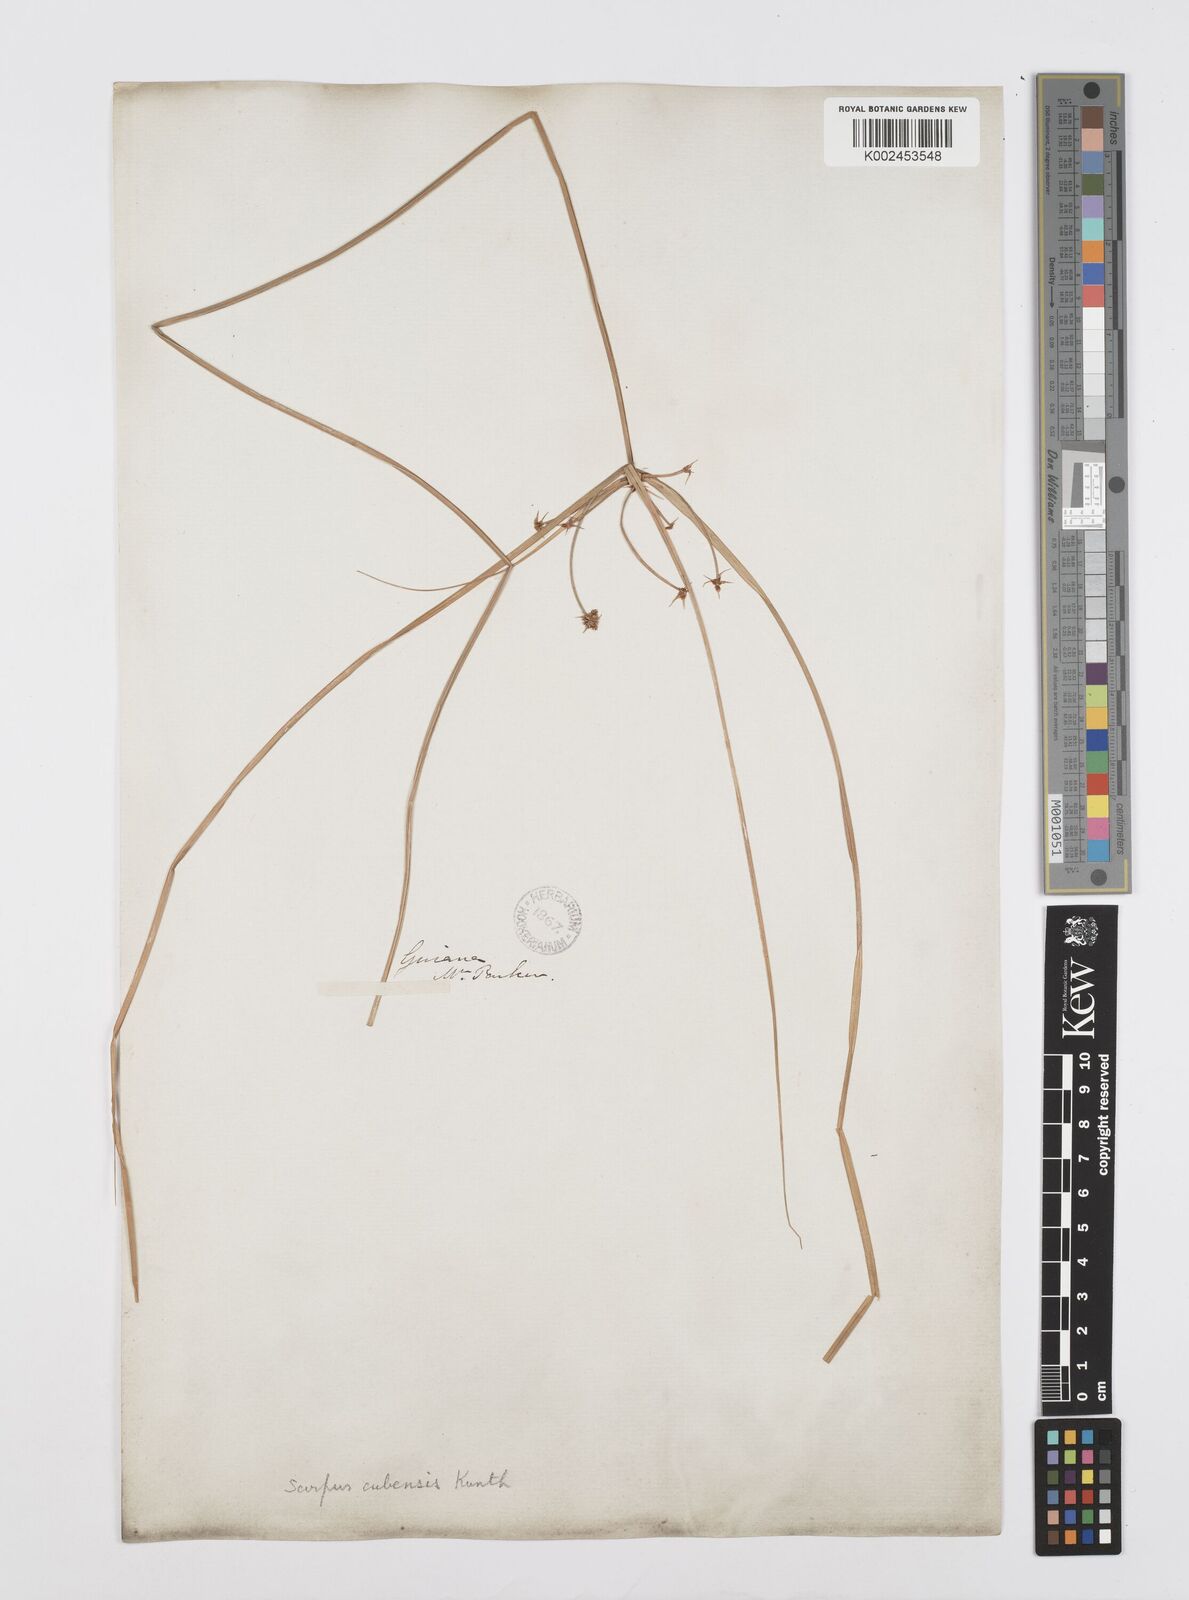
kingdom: Plantae
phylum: Tracheophyta
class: Liliopsida
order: Poales
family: Cyperaceae
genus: Cyperus
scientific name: Cyperus elegans
